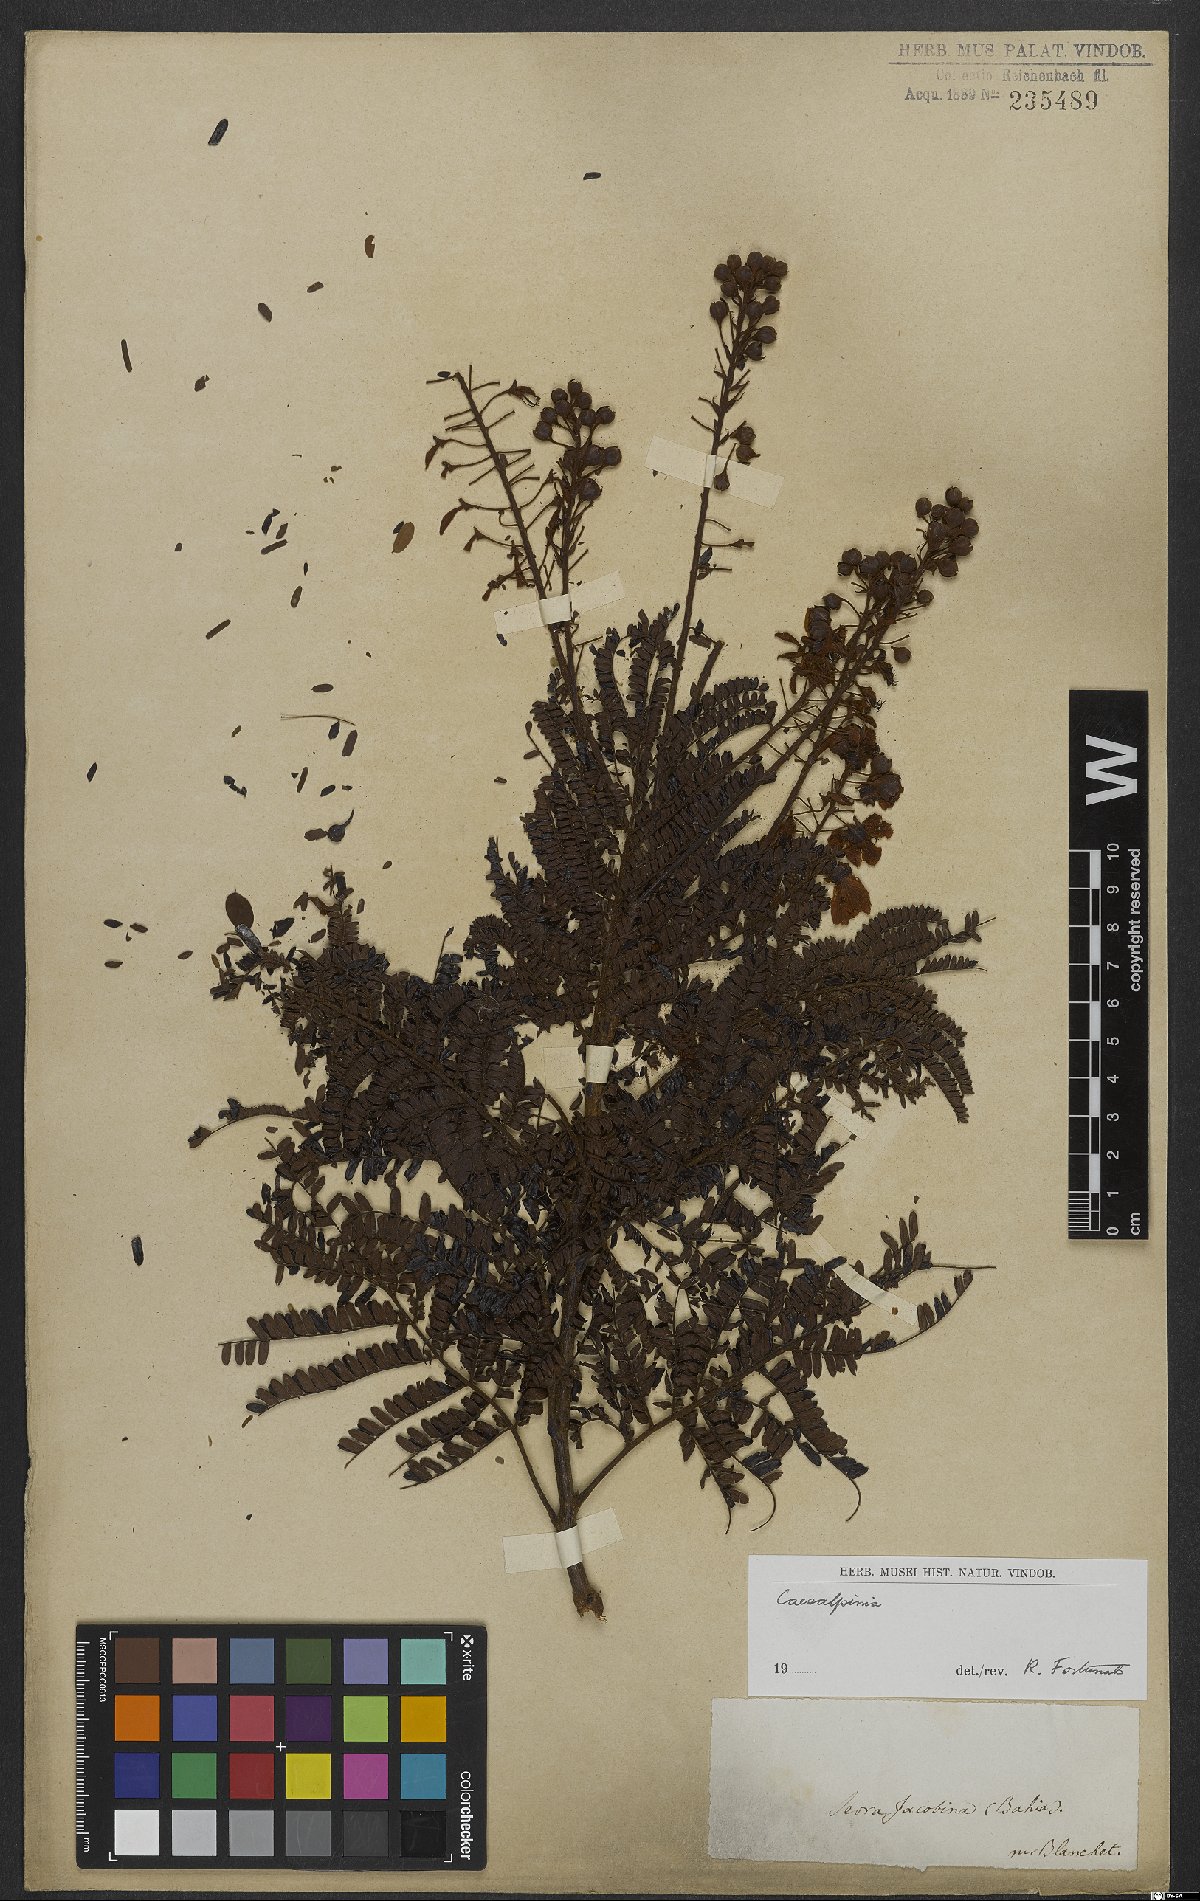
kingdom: Plantae
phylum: Tracheophyta
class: Magnoliopsida
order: Fabales
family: Fabaceae
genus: Caesalpinia
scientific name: Caesalpinia
